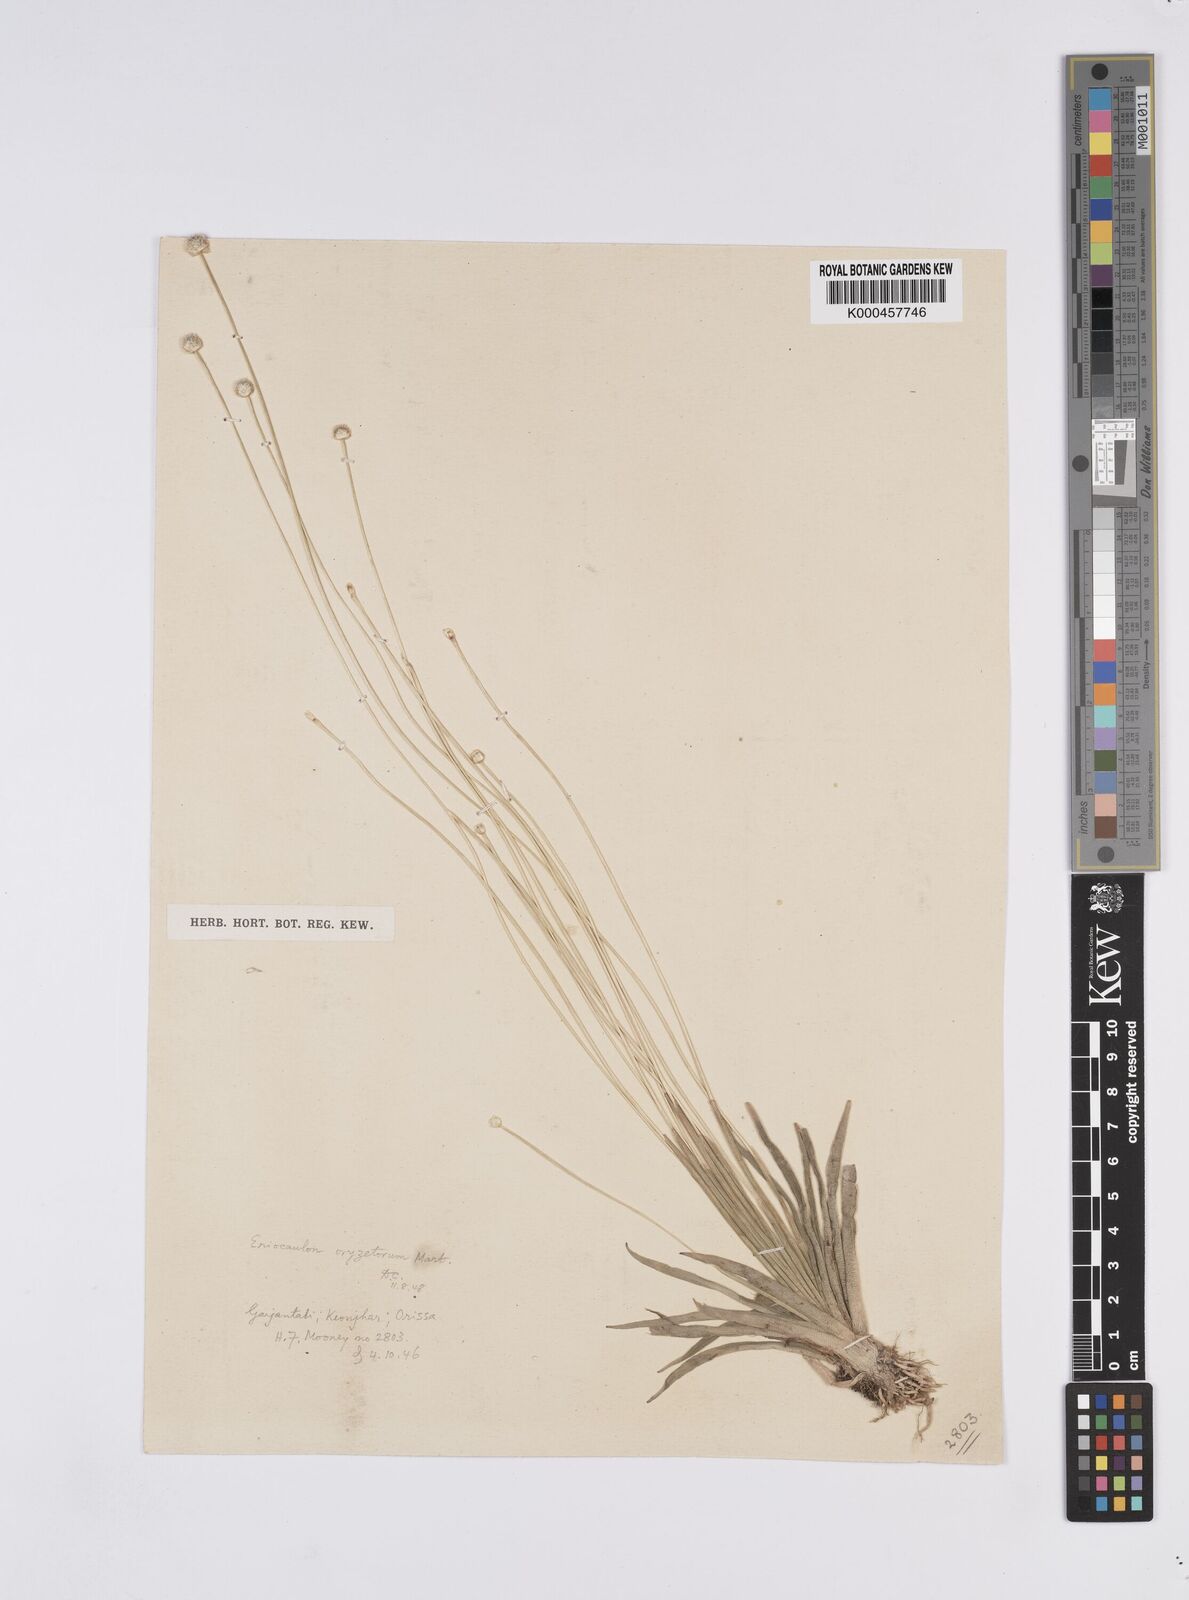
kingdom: Plantae
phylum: Tracheophyta
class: Liliopsida
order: Poales
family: Eriocaulaceae
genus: Eriocaulon
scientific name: Eriocaulon oryzetorum
